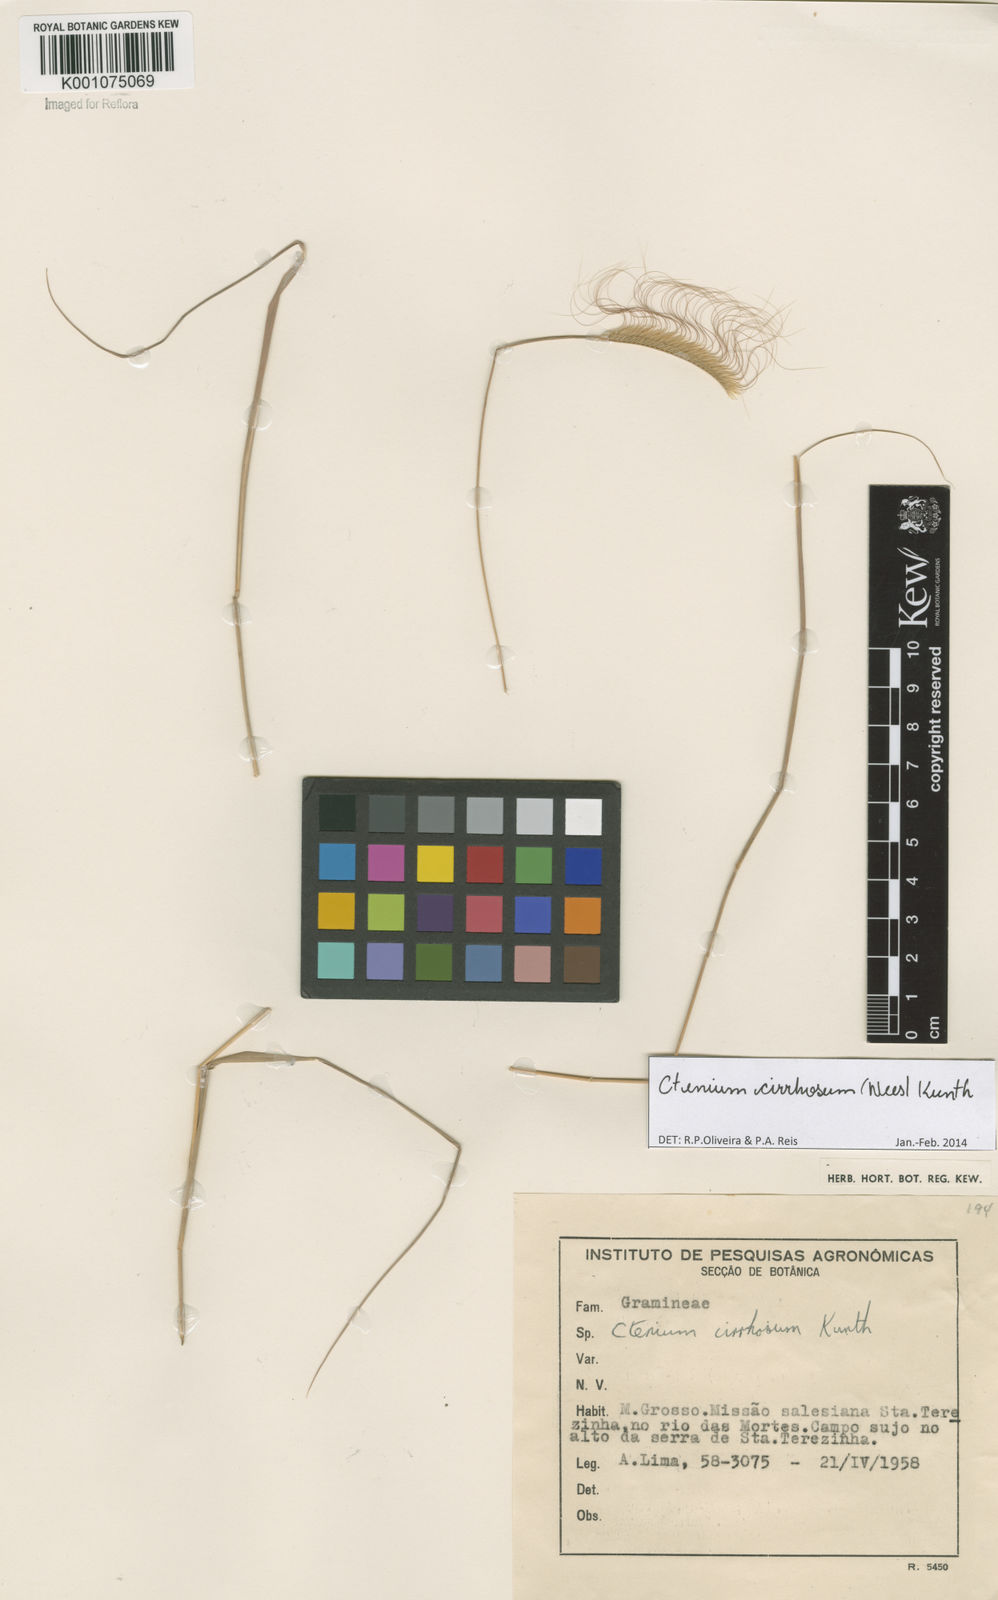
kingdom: Plantae
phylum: Tracheophyta
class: Liliopsida
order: Poales
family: Poaceae
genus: Ctenium
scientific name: Ctenium cirrhosum
